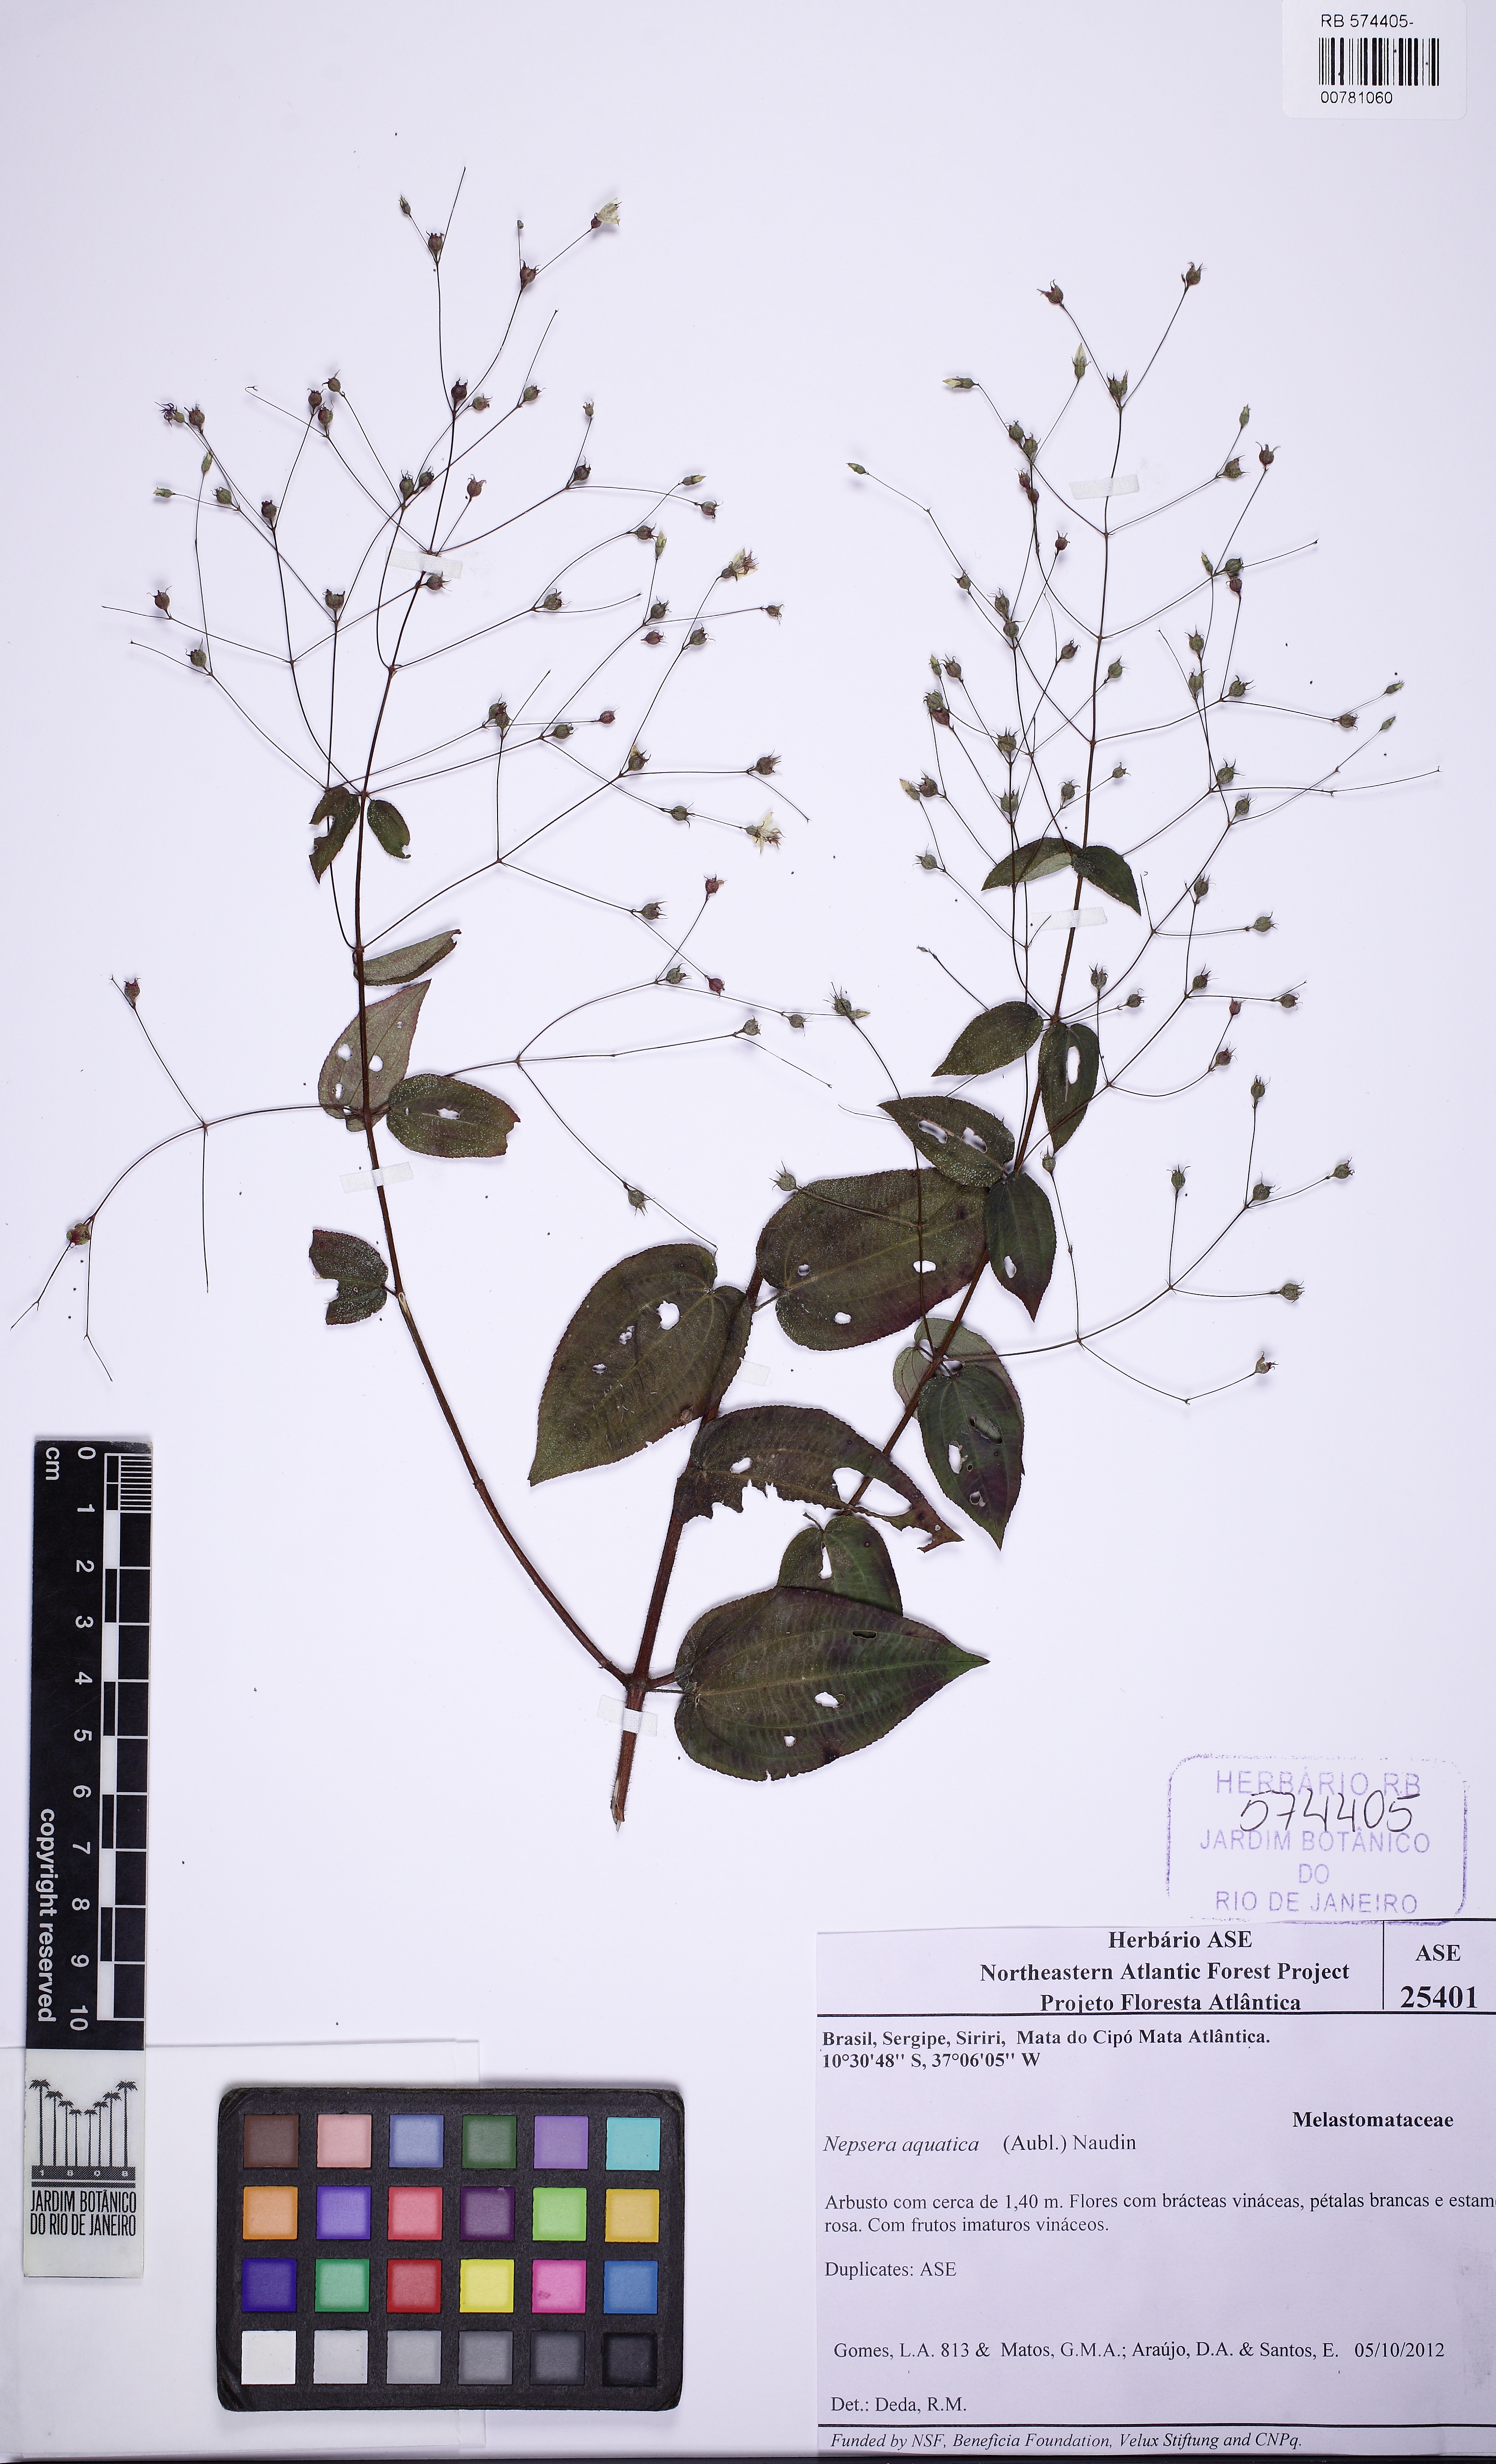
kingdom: Plantae
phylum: Tracheophyta
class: Magnoliopsida
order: Myrtales
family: Melastomataceae
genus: Nepsera
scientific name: Nepsera aquatica
